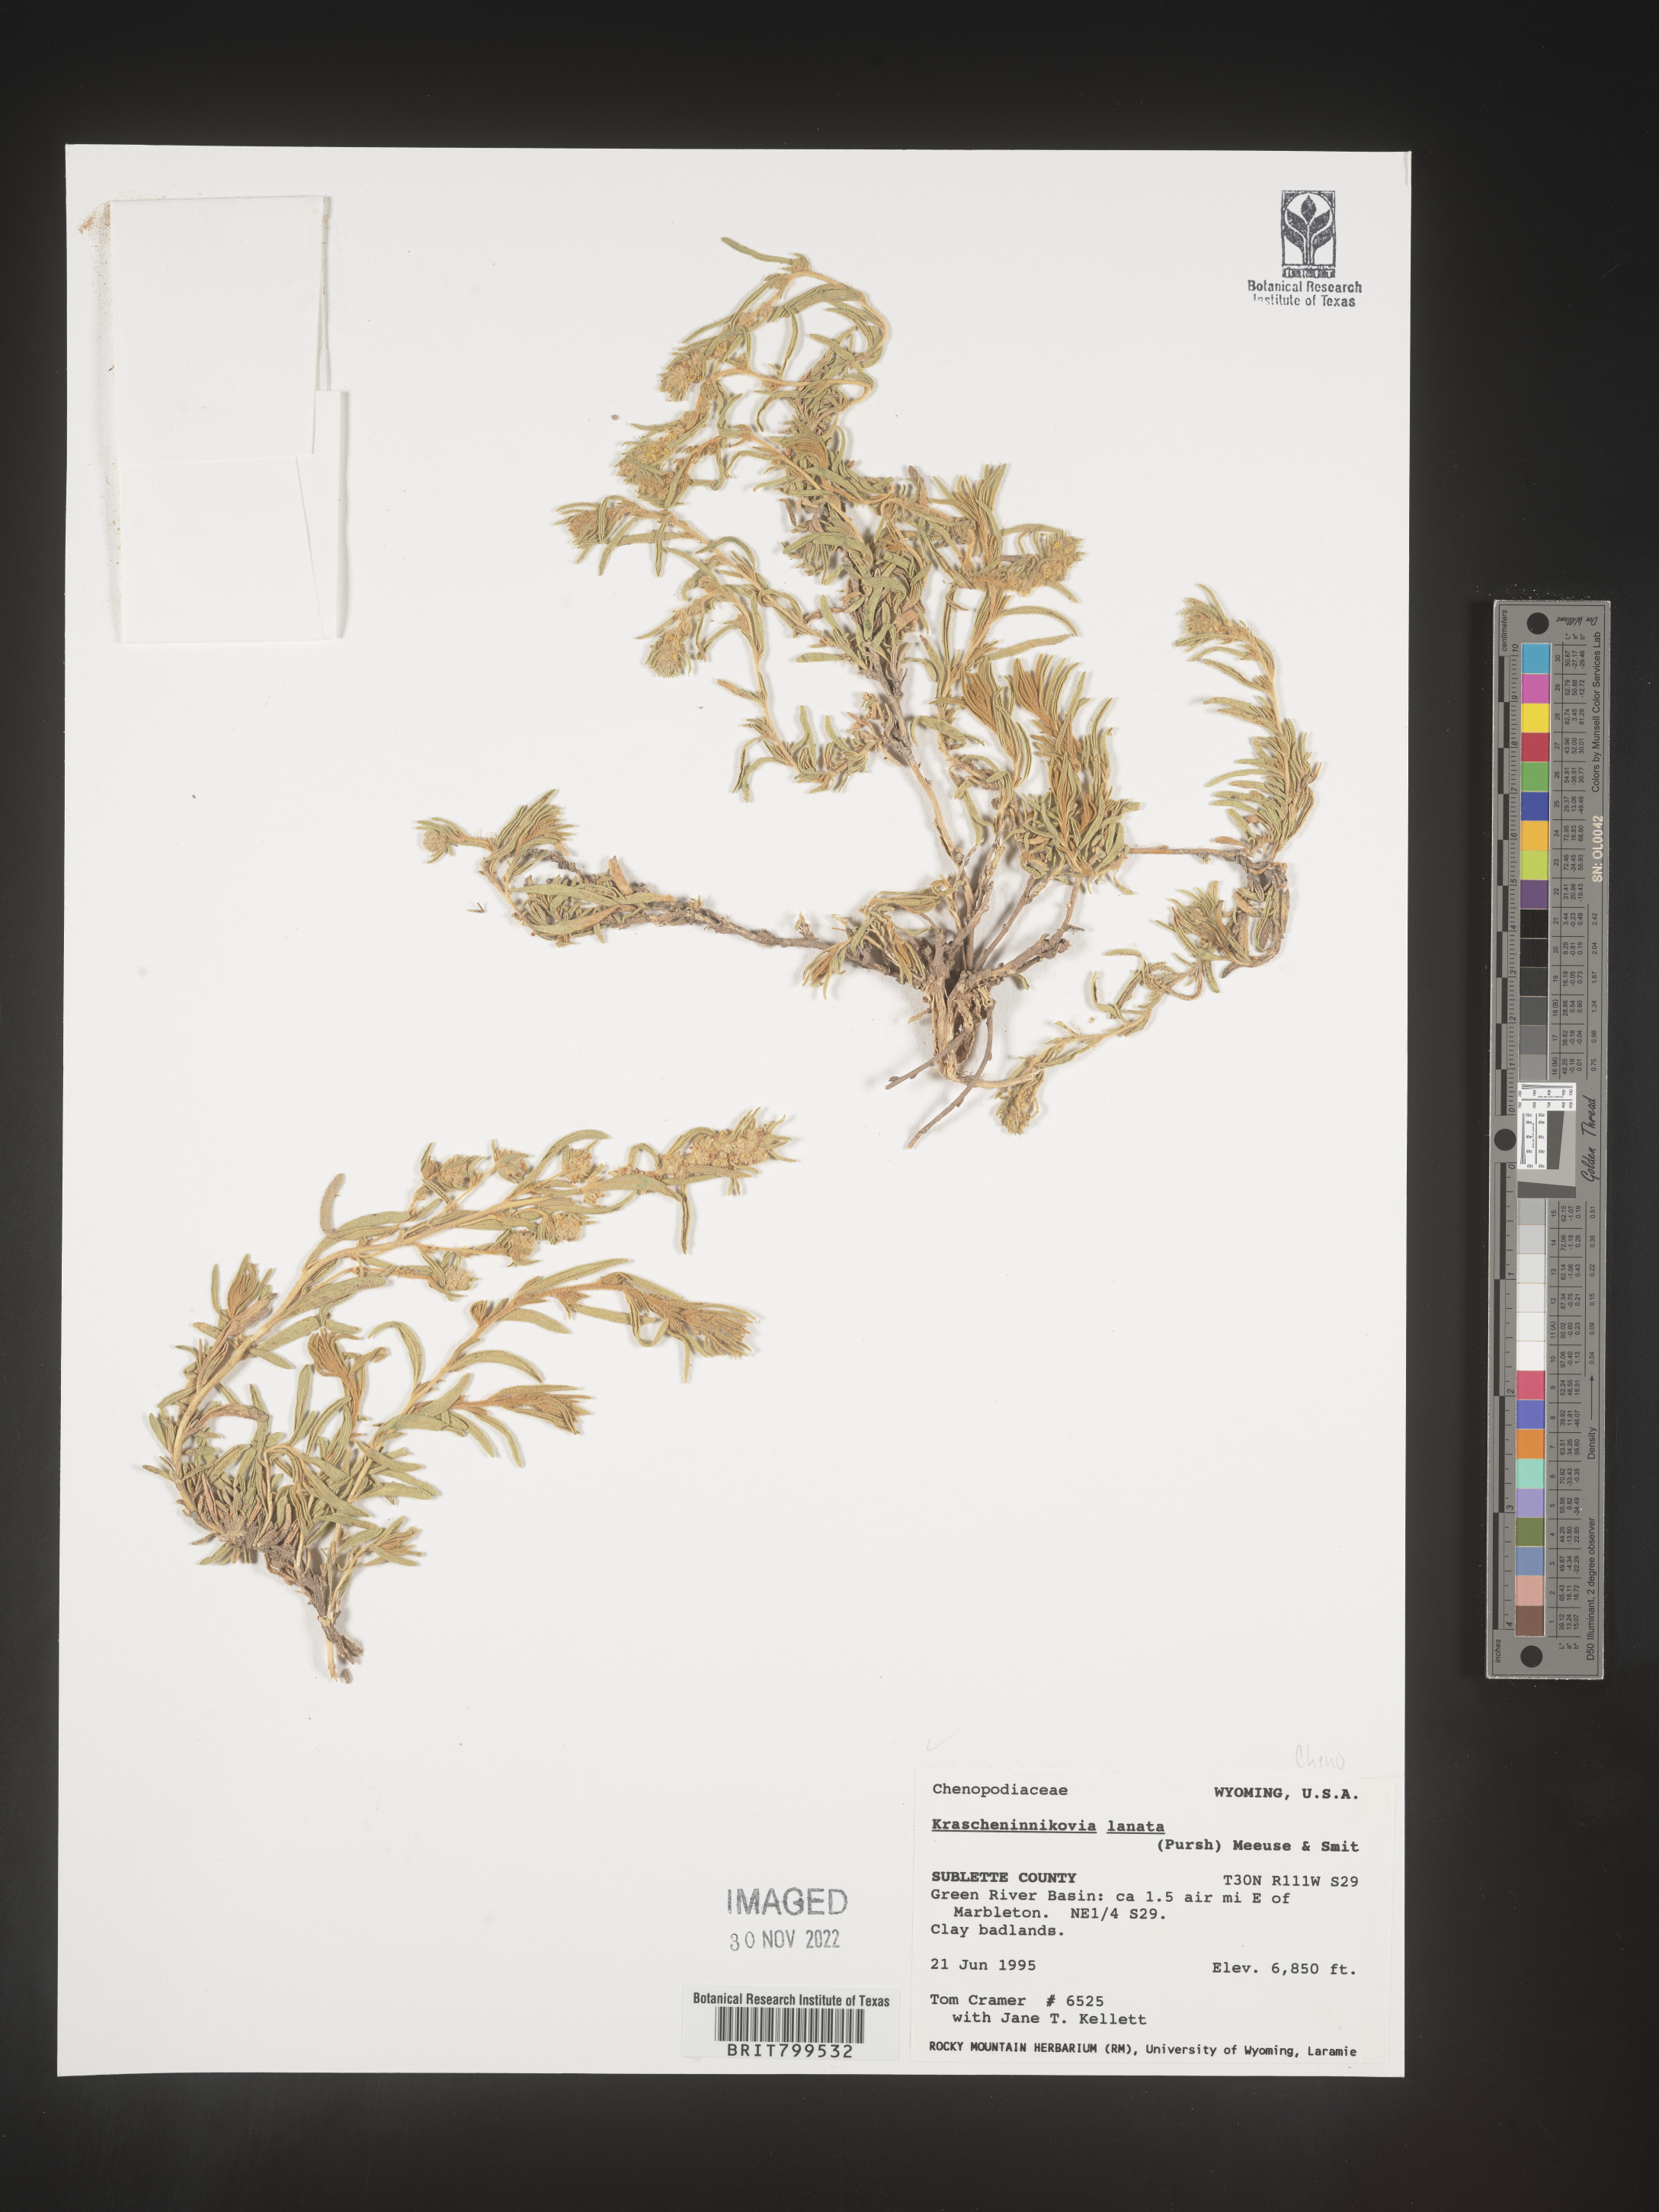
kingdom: Plantae
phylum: Tracheophyta
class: Magnoliopsida
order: Caryophyllales
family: Amaranthaceae
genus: Krascheninnikovia
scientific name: Krascheninnikovia
